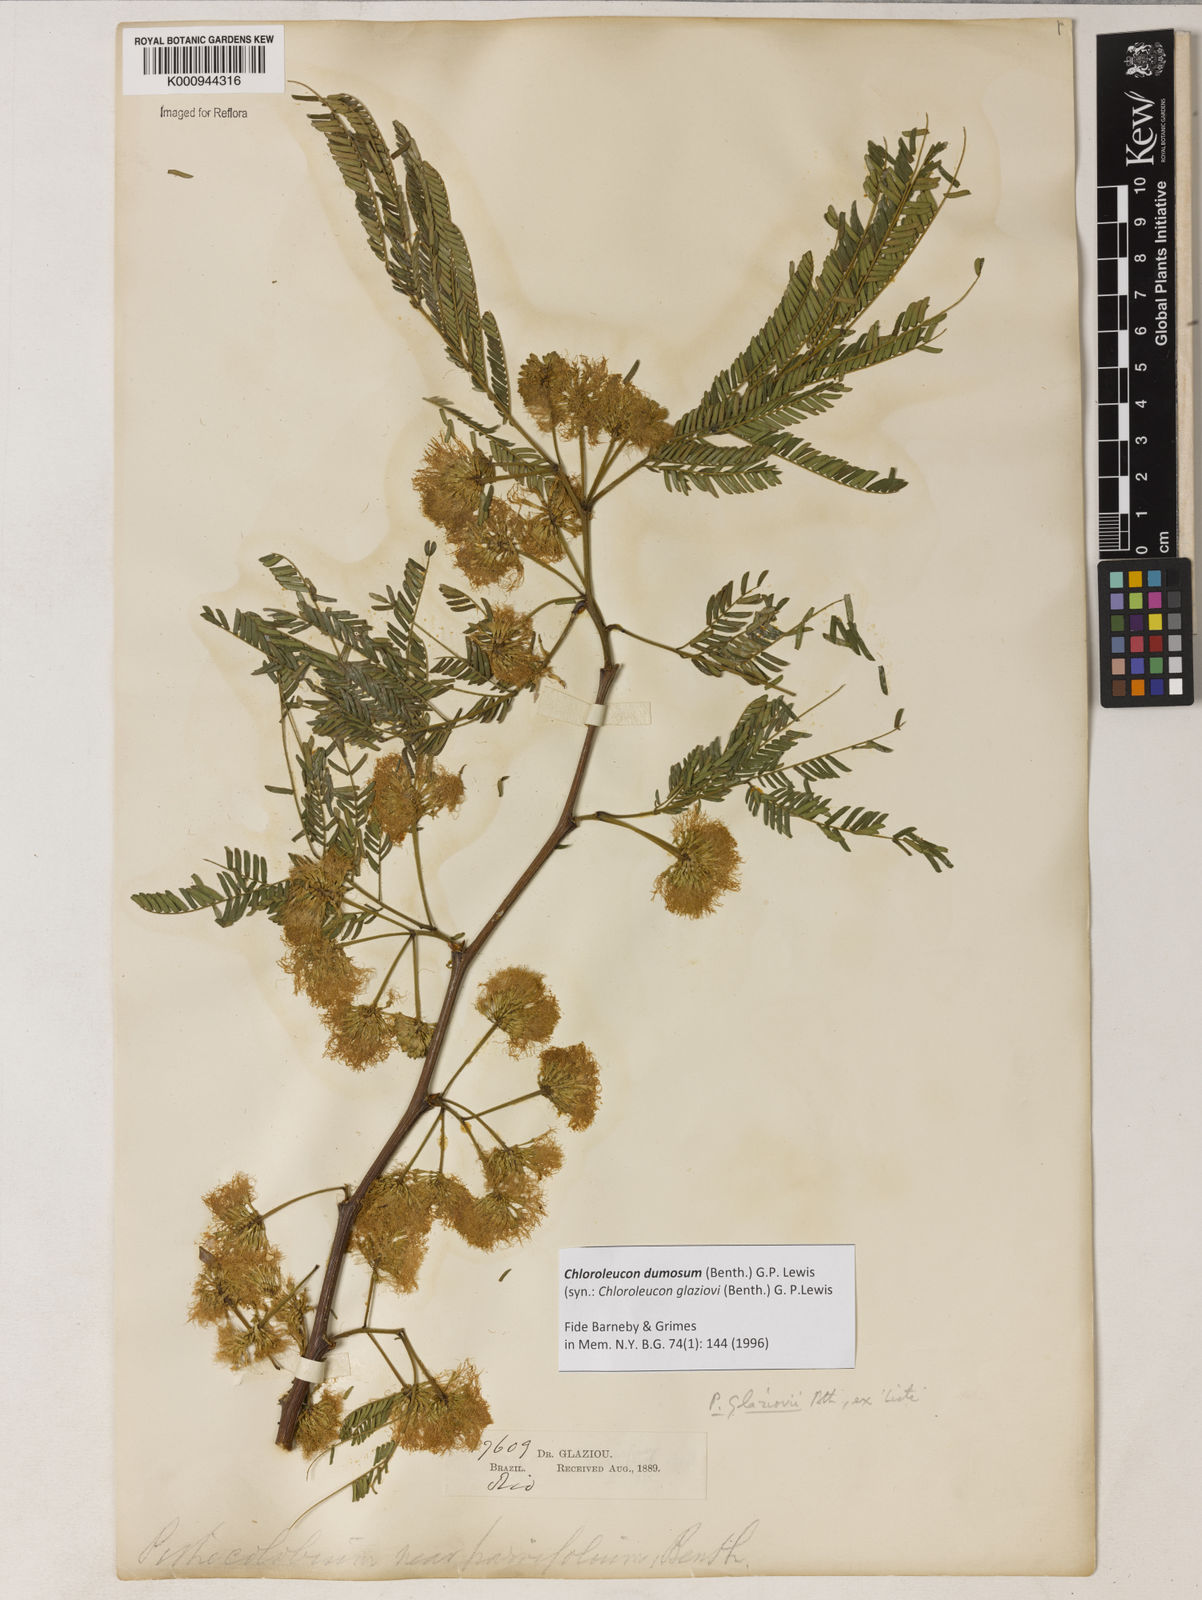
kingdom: Plantae
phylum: Tracheophyta
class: Magnoliopsida
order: Fabales
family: Fabaceae
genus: Inga
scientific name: Inga stenoptera
